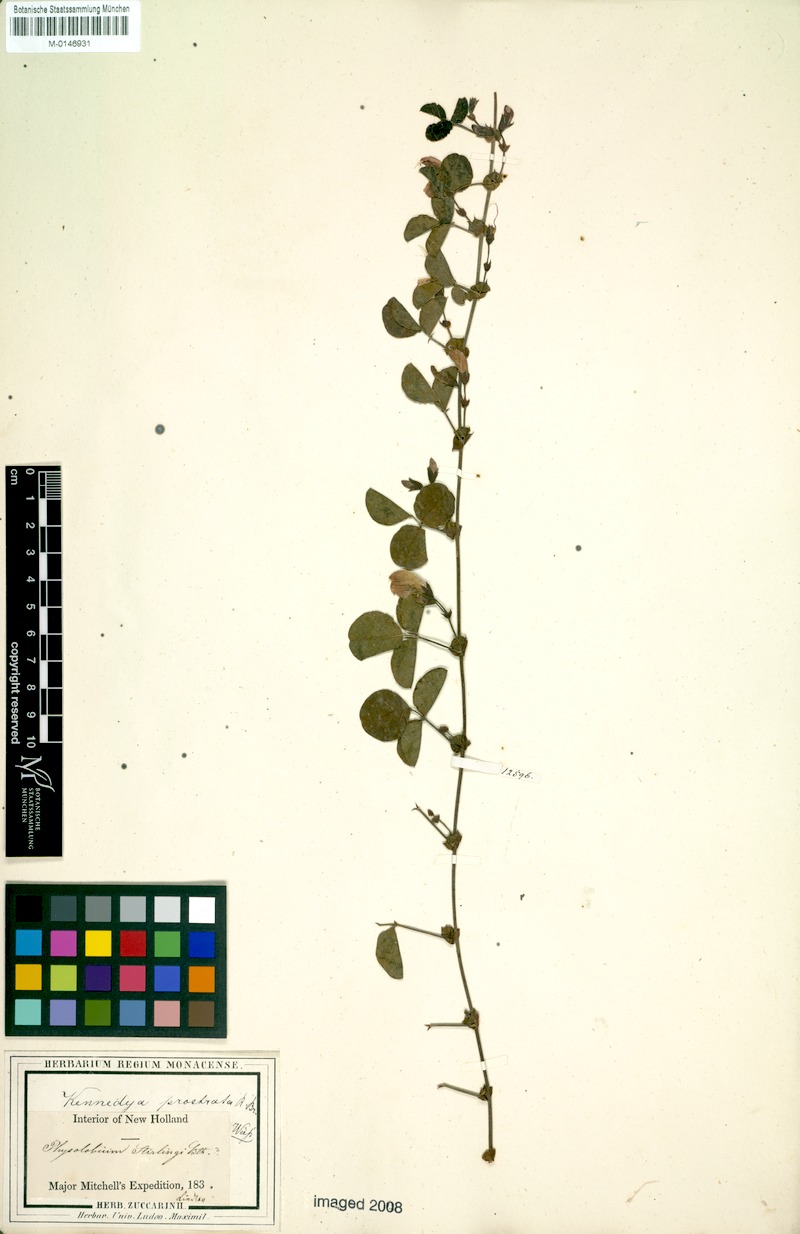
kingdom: Plantae
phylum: Tracheophyta
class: Magnoliopsida
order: Fabales
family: Fabaceae
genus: Kennedia
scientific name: Kennedia prostrata
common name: Running-postman
